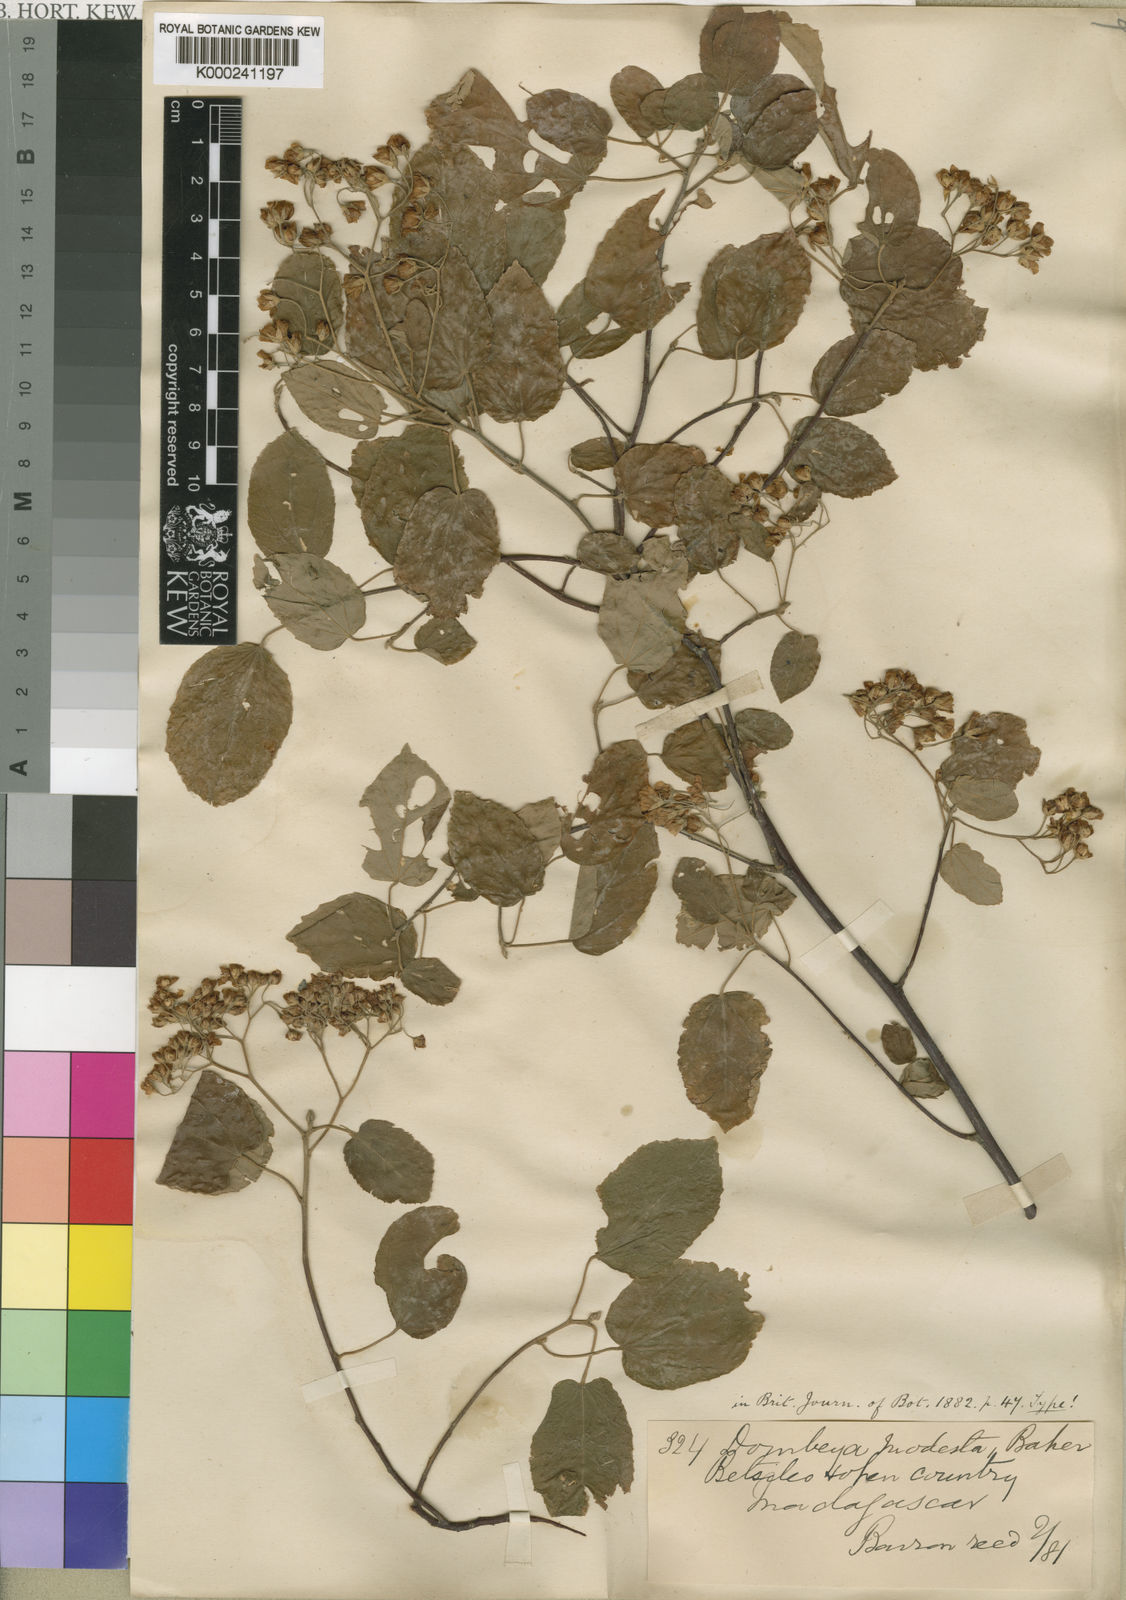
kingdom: Plantae
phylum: Tracheophyta
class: Magnoliopsida
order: Malvales
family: Malvaceae
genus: Dombeya
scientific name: Dombeya modesta
